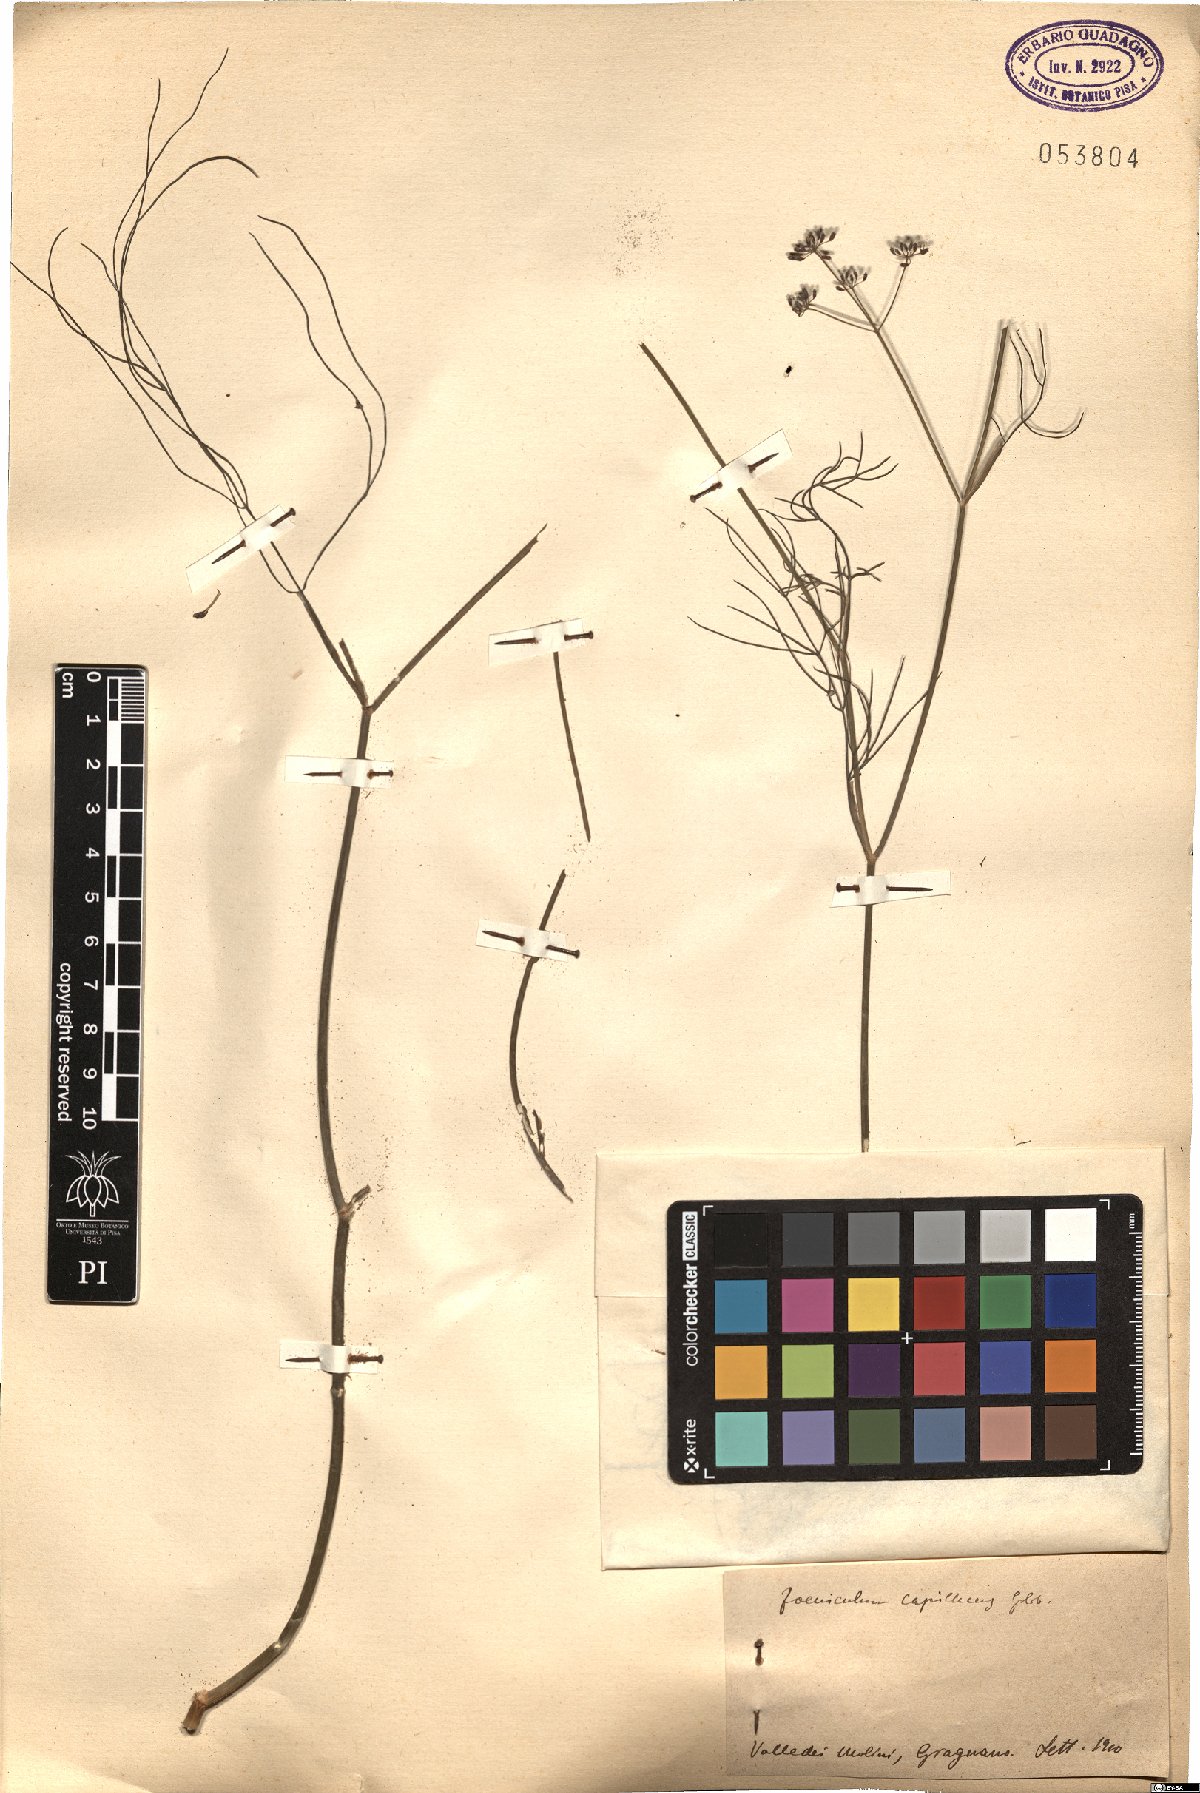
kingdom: Plantae
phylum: Tracheophyta
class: Magnoliopsida
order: Apiales
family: Apiaceae
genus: Foeniculum
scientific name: Foeniculum vulgare
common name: Fennel
